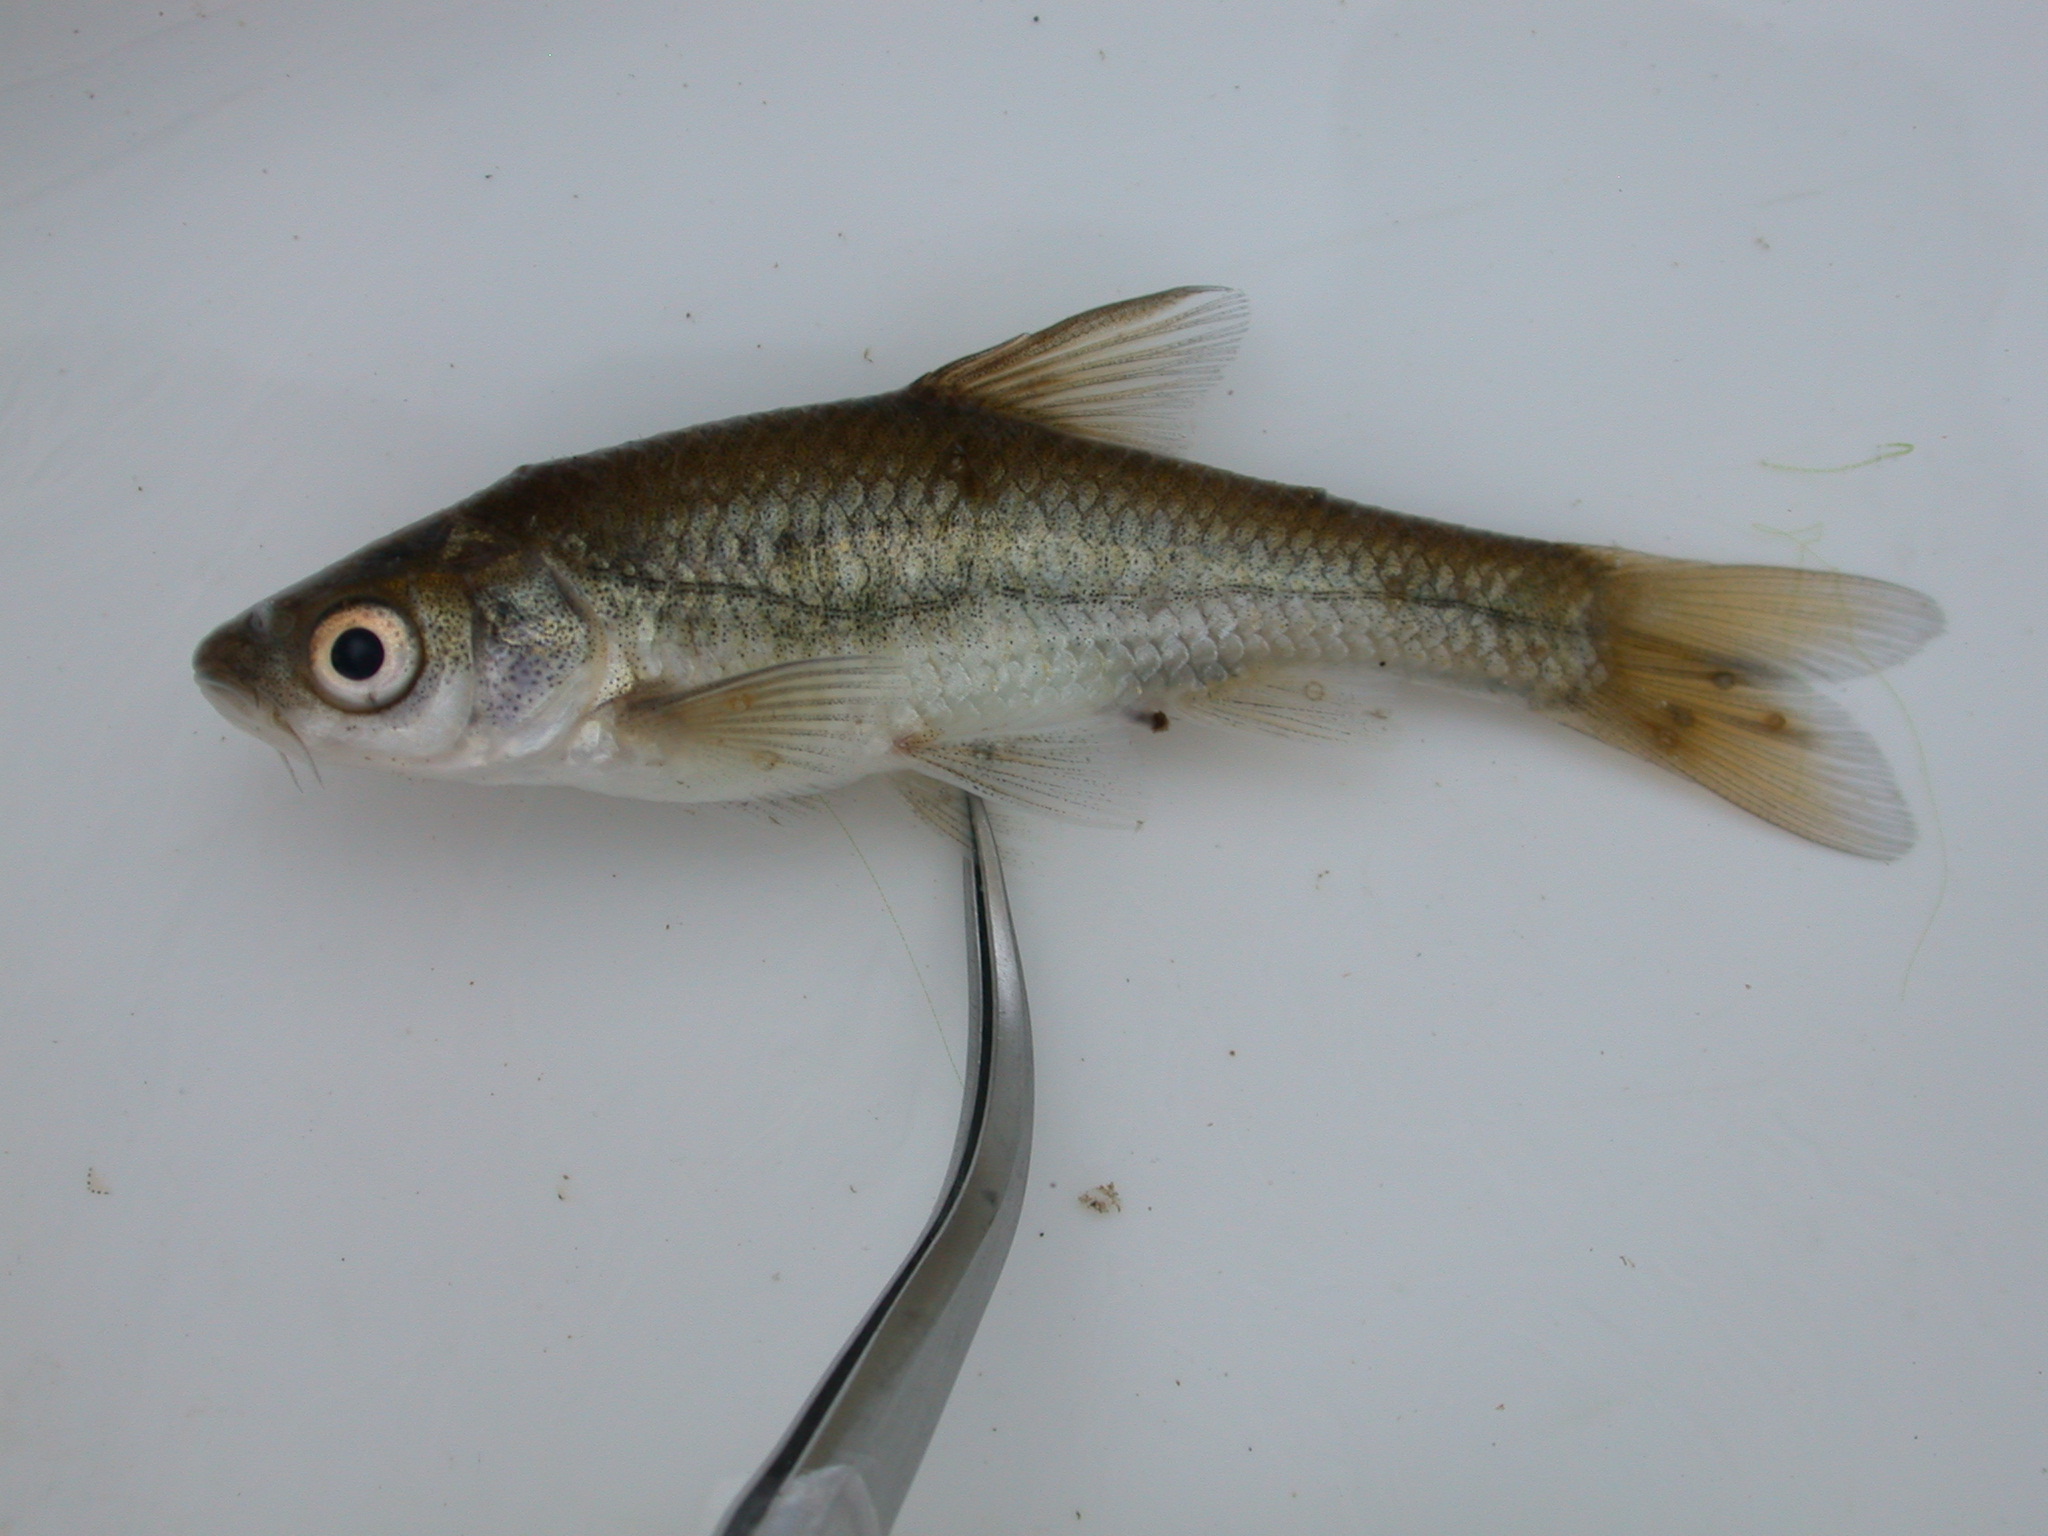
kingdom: Animalia
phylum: Chordata
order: Cypriniformes
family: Cyprinidae
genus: Enteromius
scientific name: Enteromius paludinosus
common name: Straightfin barb
